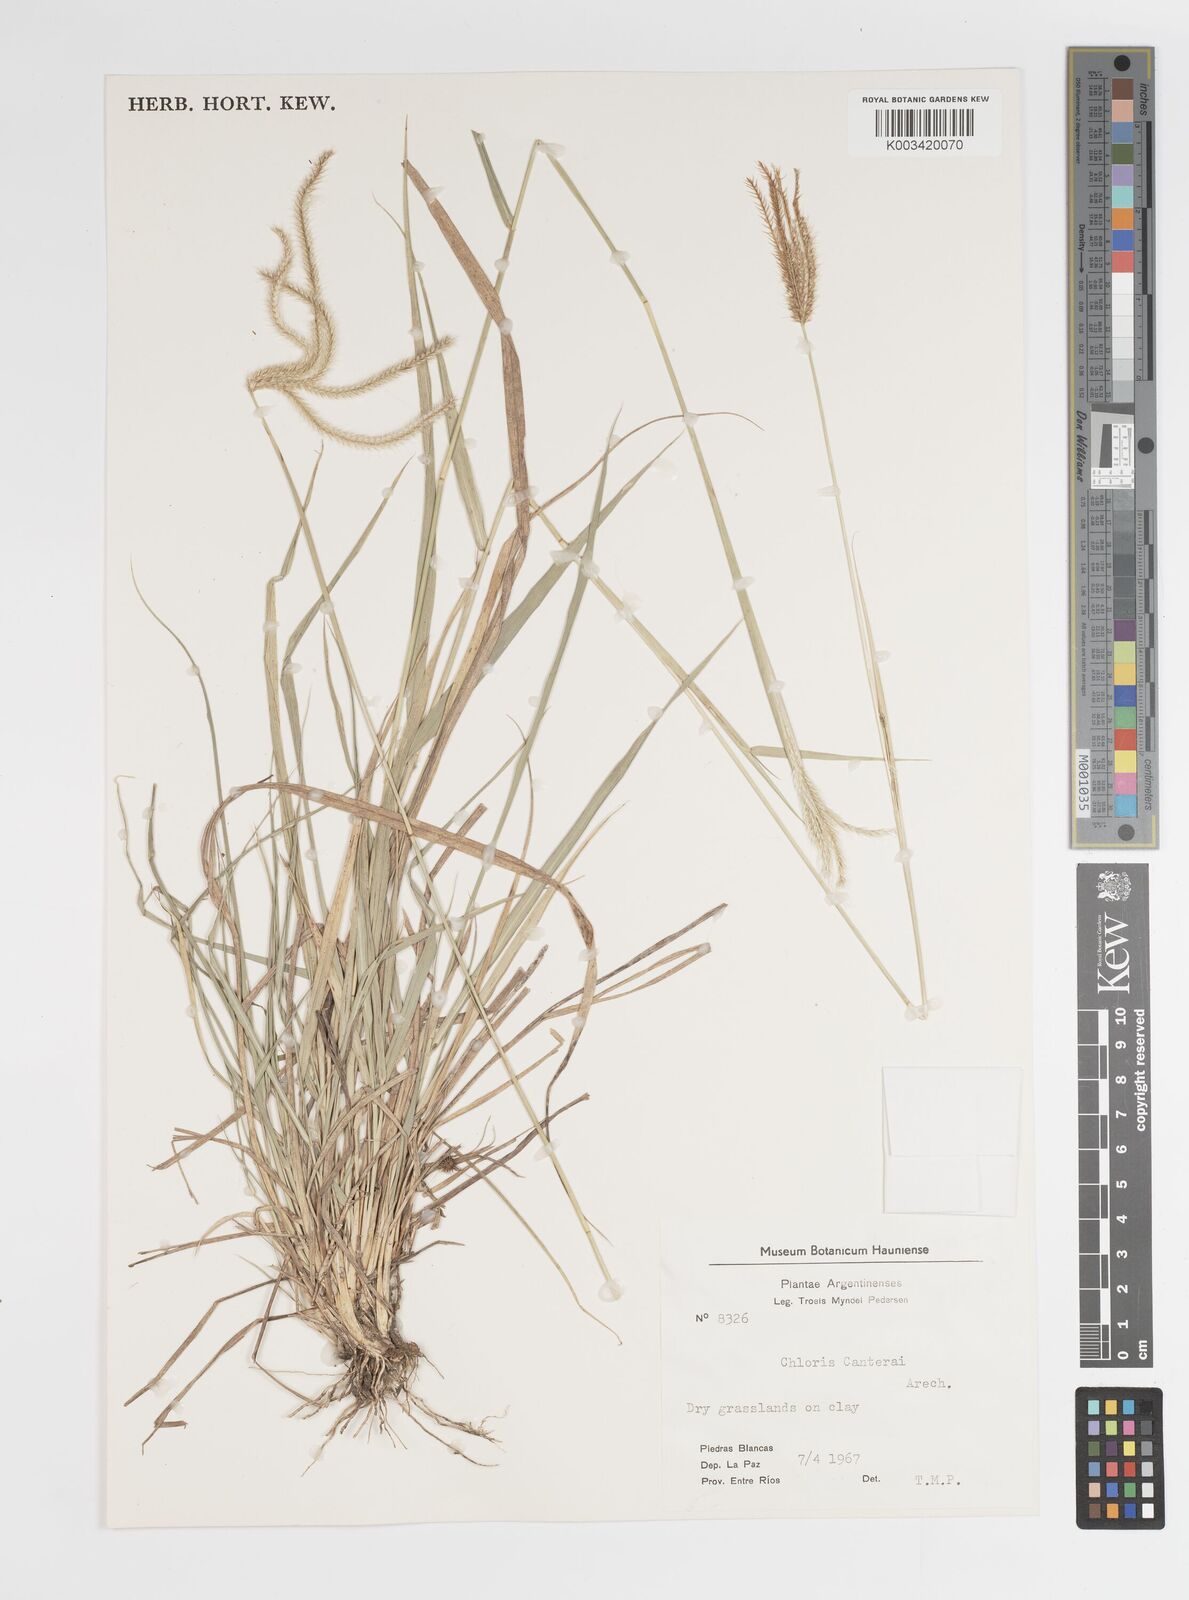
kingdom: Plantae
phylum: Tracheophyta
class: Liliopsida
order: Poales
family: Poaceae
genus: Stapfochloa
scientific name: Stapfochloa canterae
